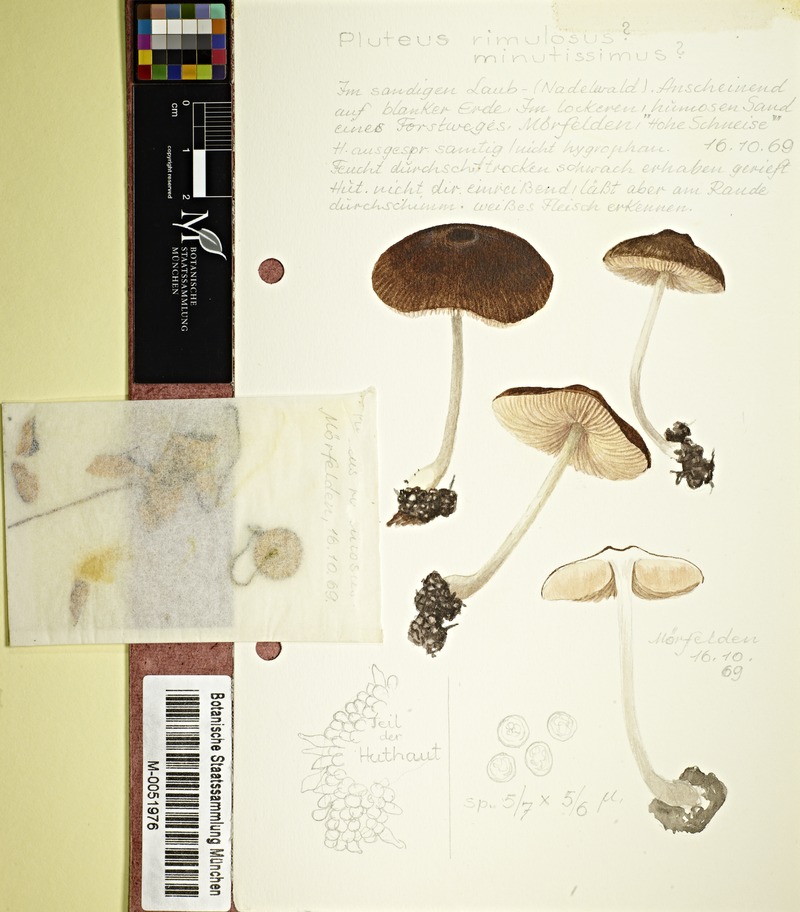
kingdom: Fungi
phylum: Basidiomycota
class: Agaricomycetes
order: Agaricales
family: Pluteaceae
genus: Pluteus
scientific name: Pluteus diettrichii
